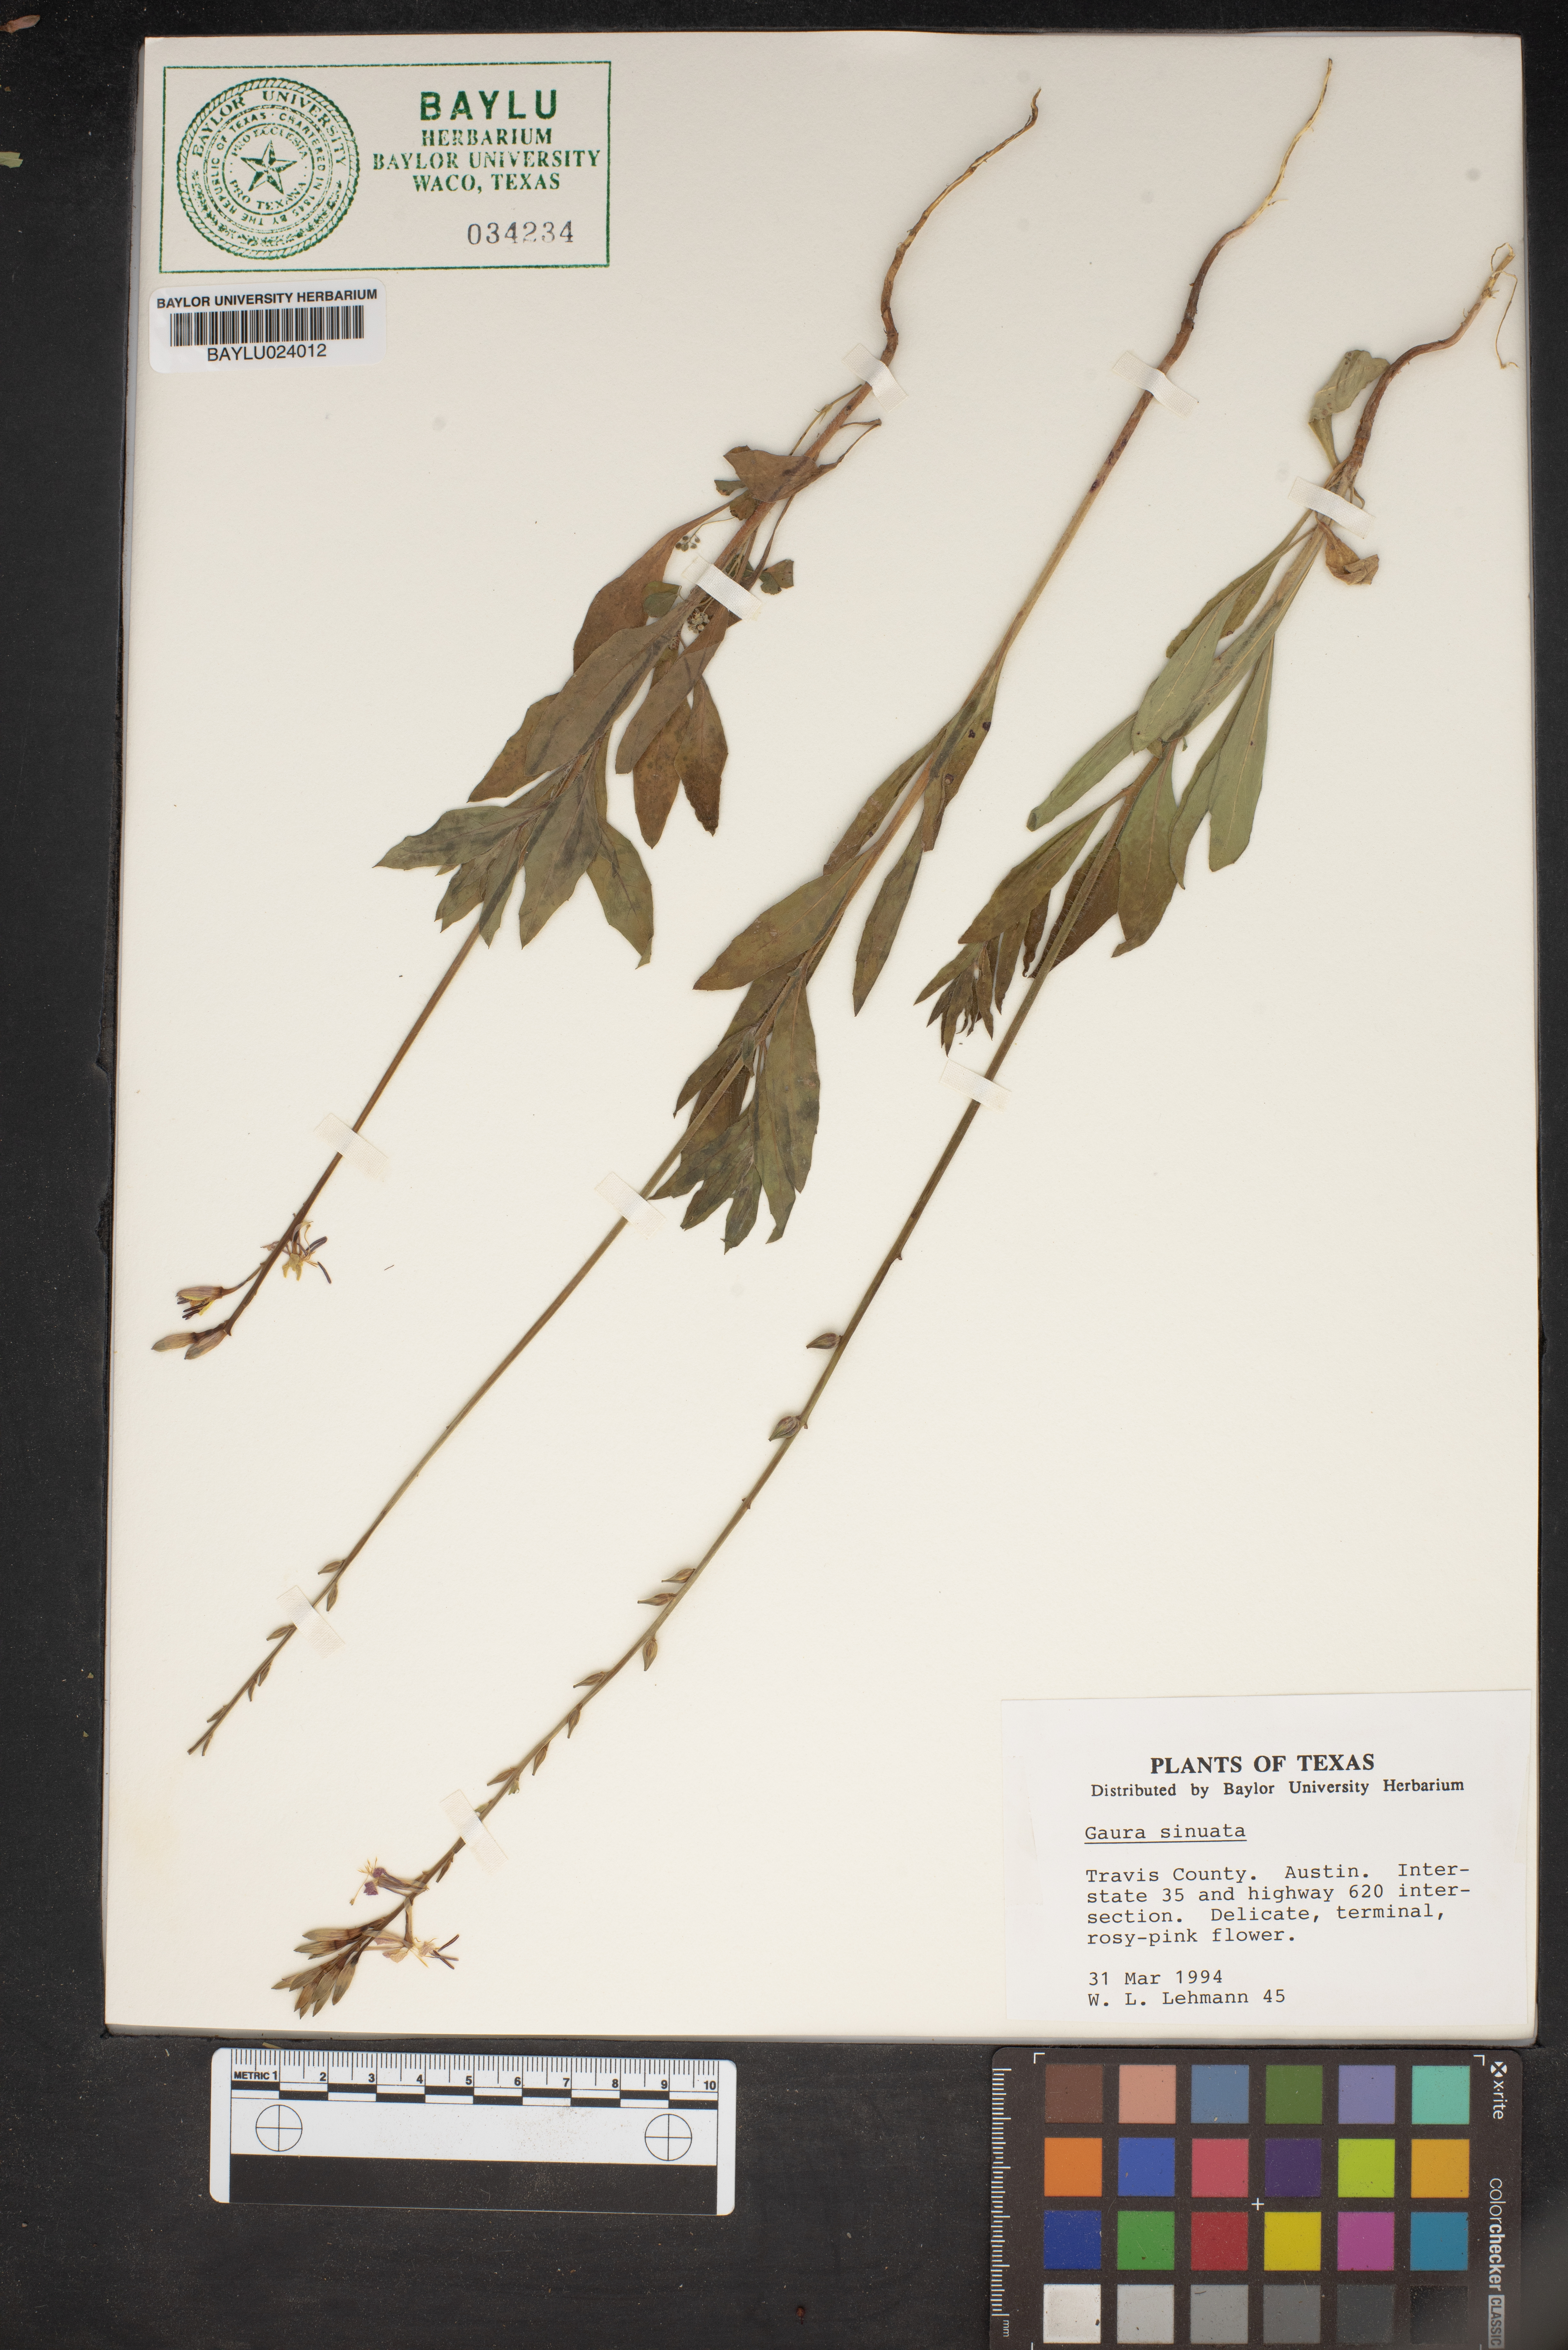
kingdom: Plantae
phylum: Tracheophyta
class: Magnoliopsida
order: Myrtales
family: Onagraceae
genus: Oenothera
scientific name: Oenothera sinuosa
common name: Wavyleaf beeblossom
